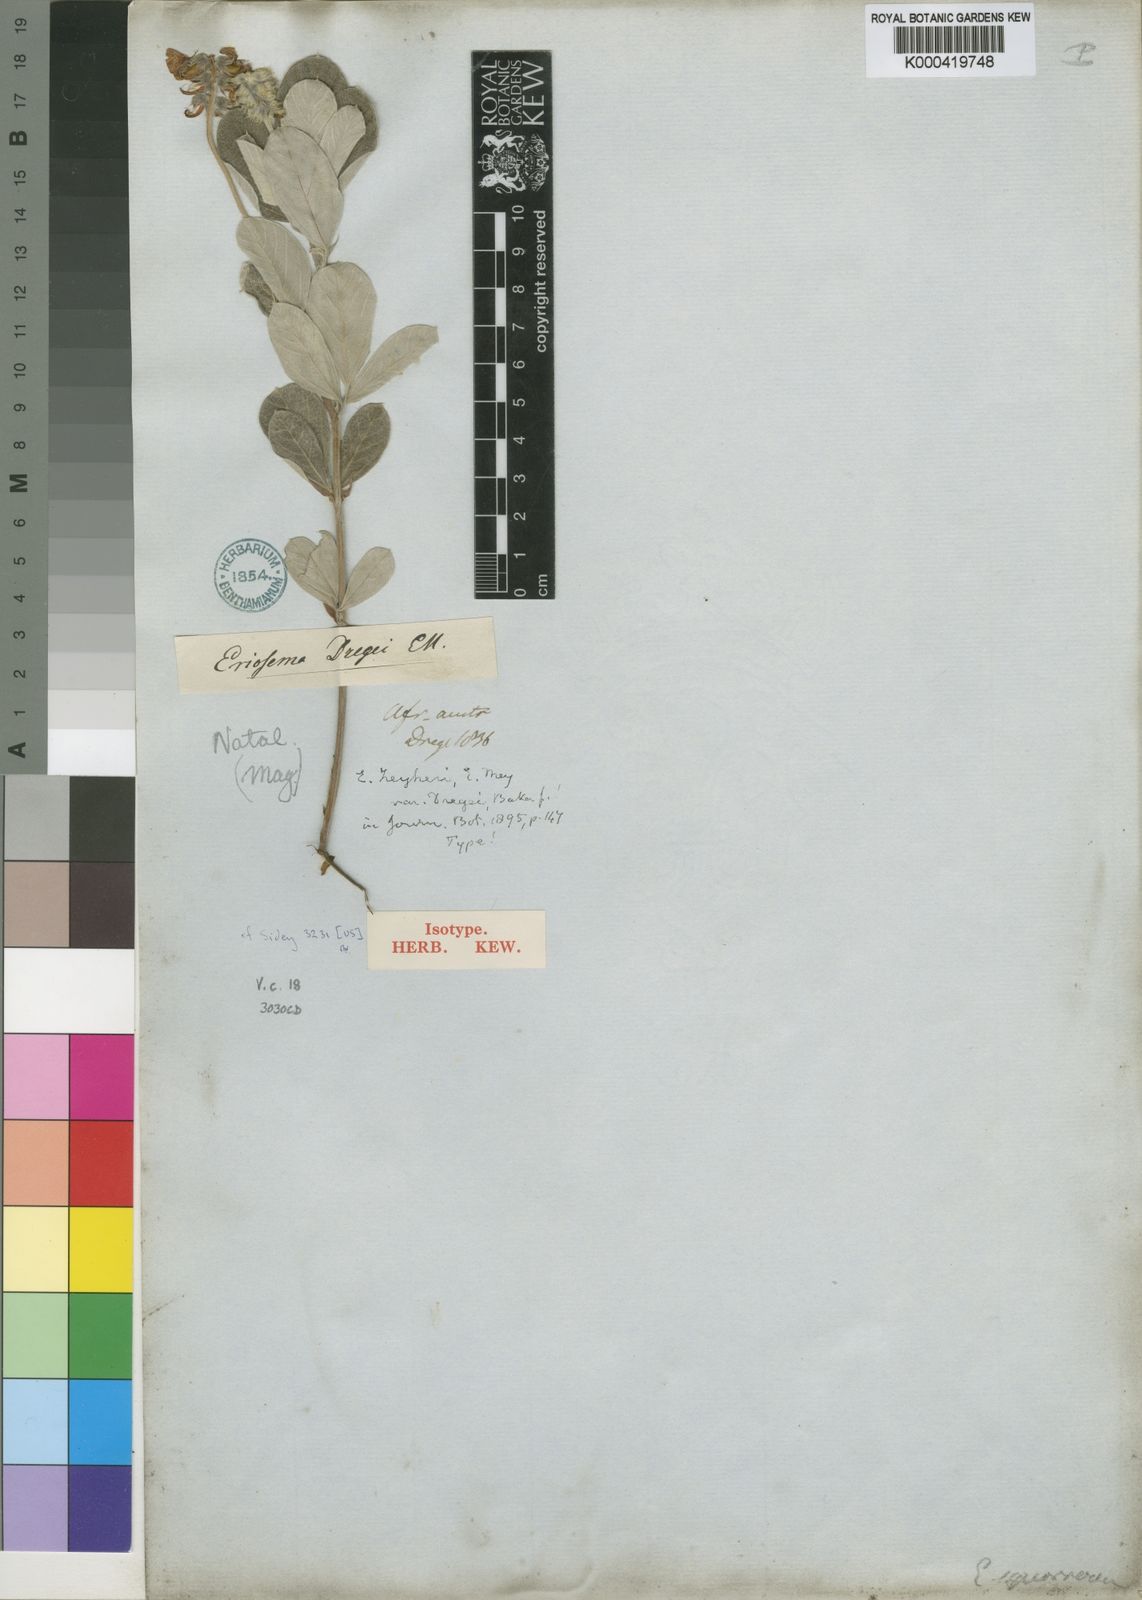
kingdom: Plantae
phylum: Tracheophyta
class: Magnoliopsida
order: Fabales
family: Fabaceae
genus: Eriosema
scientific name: Eriosema dregei
